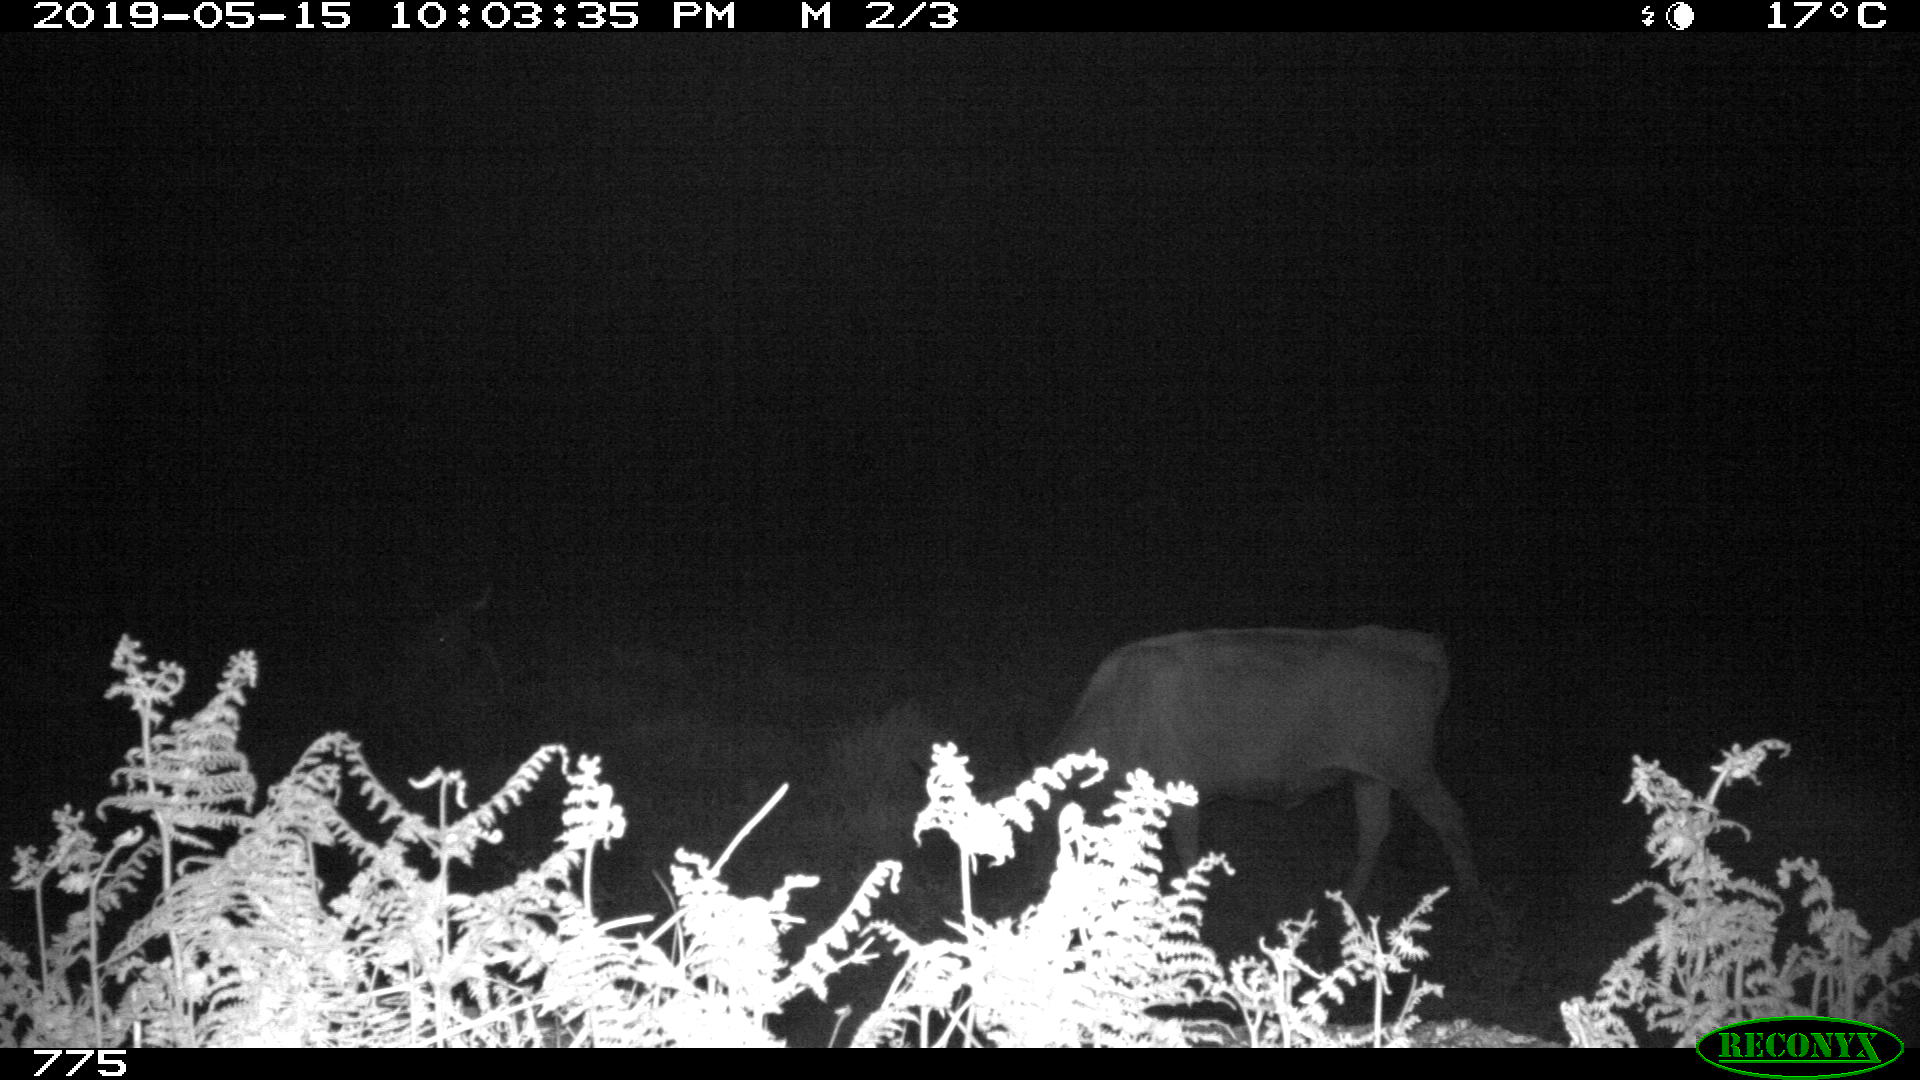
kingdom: Animalia
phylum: Chordata
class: Mammalia
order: Artiodactyla
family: Bovidae
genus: Bos
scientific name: Bos taurus
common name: Domesticated cattle
